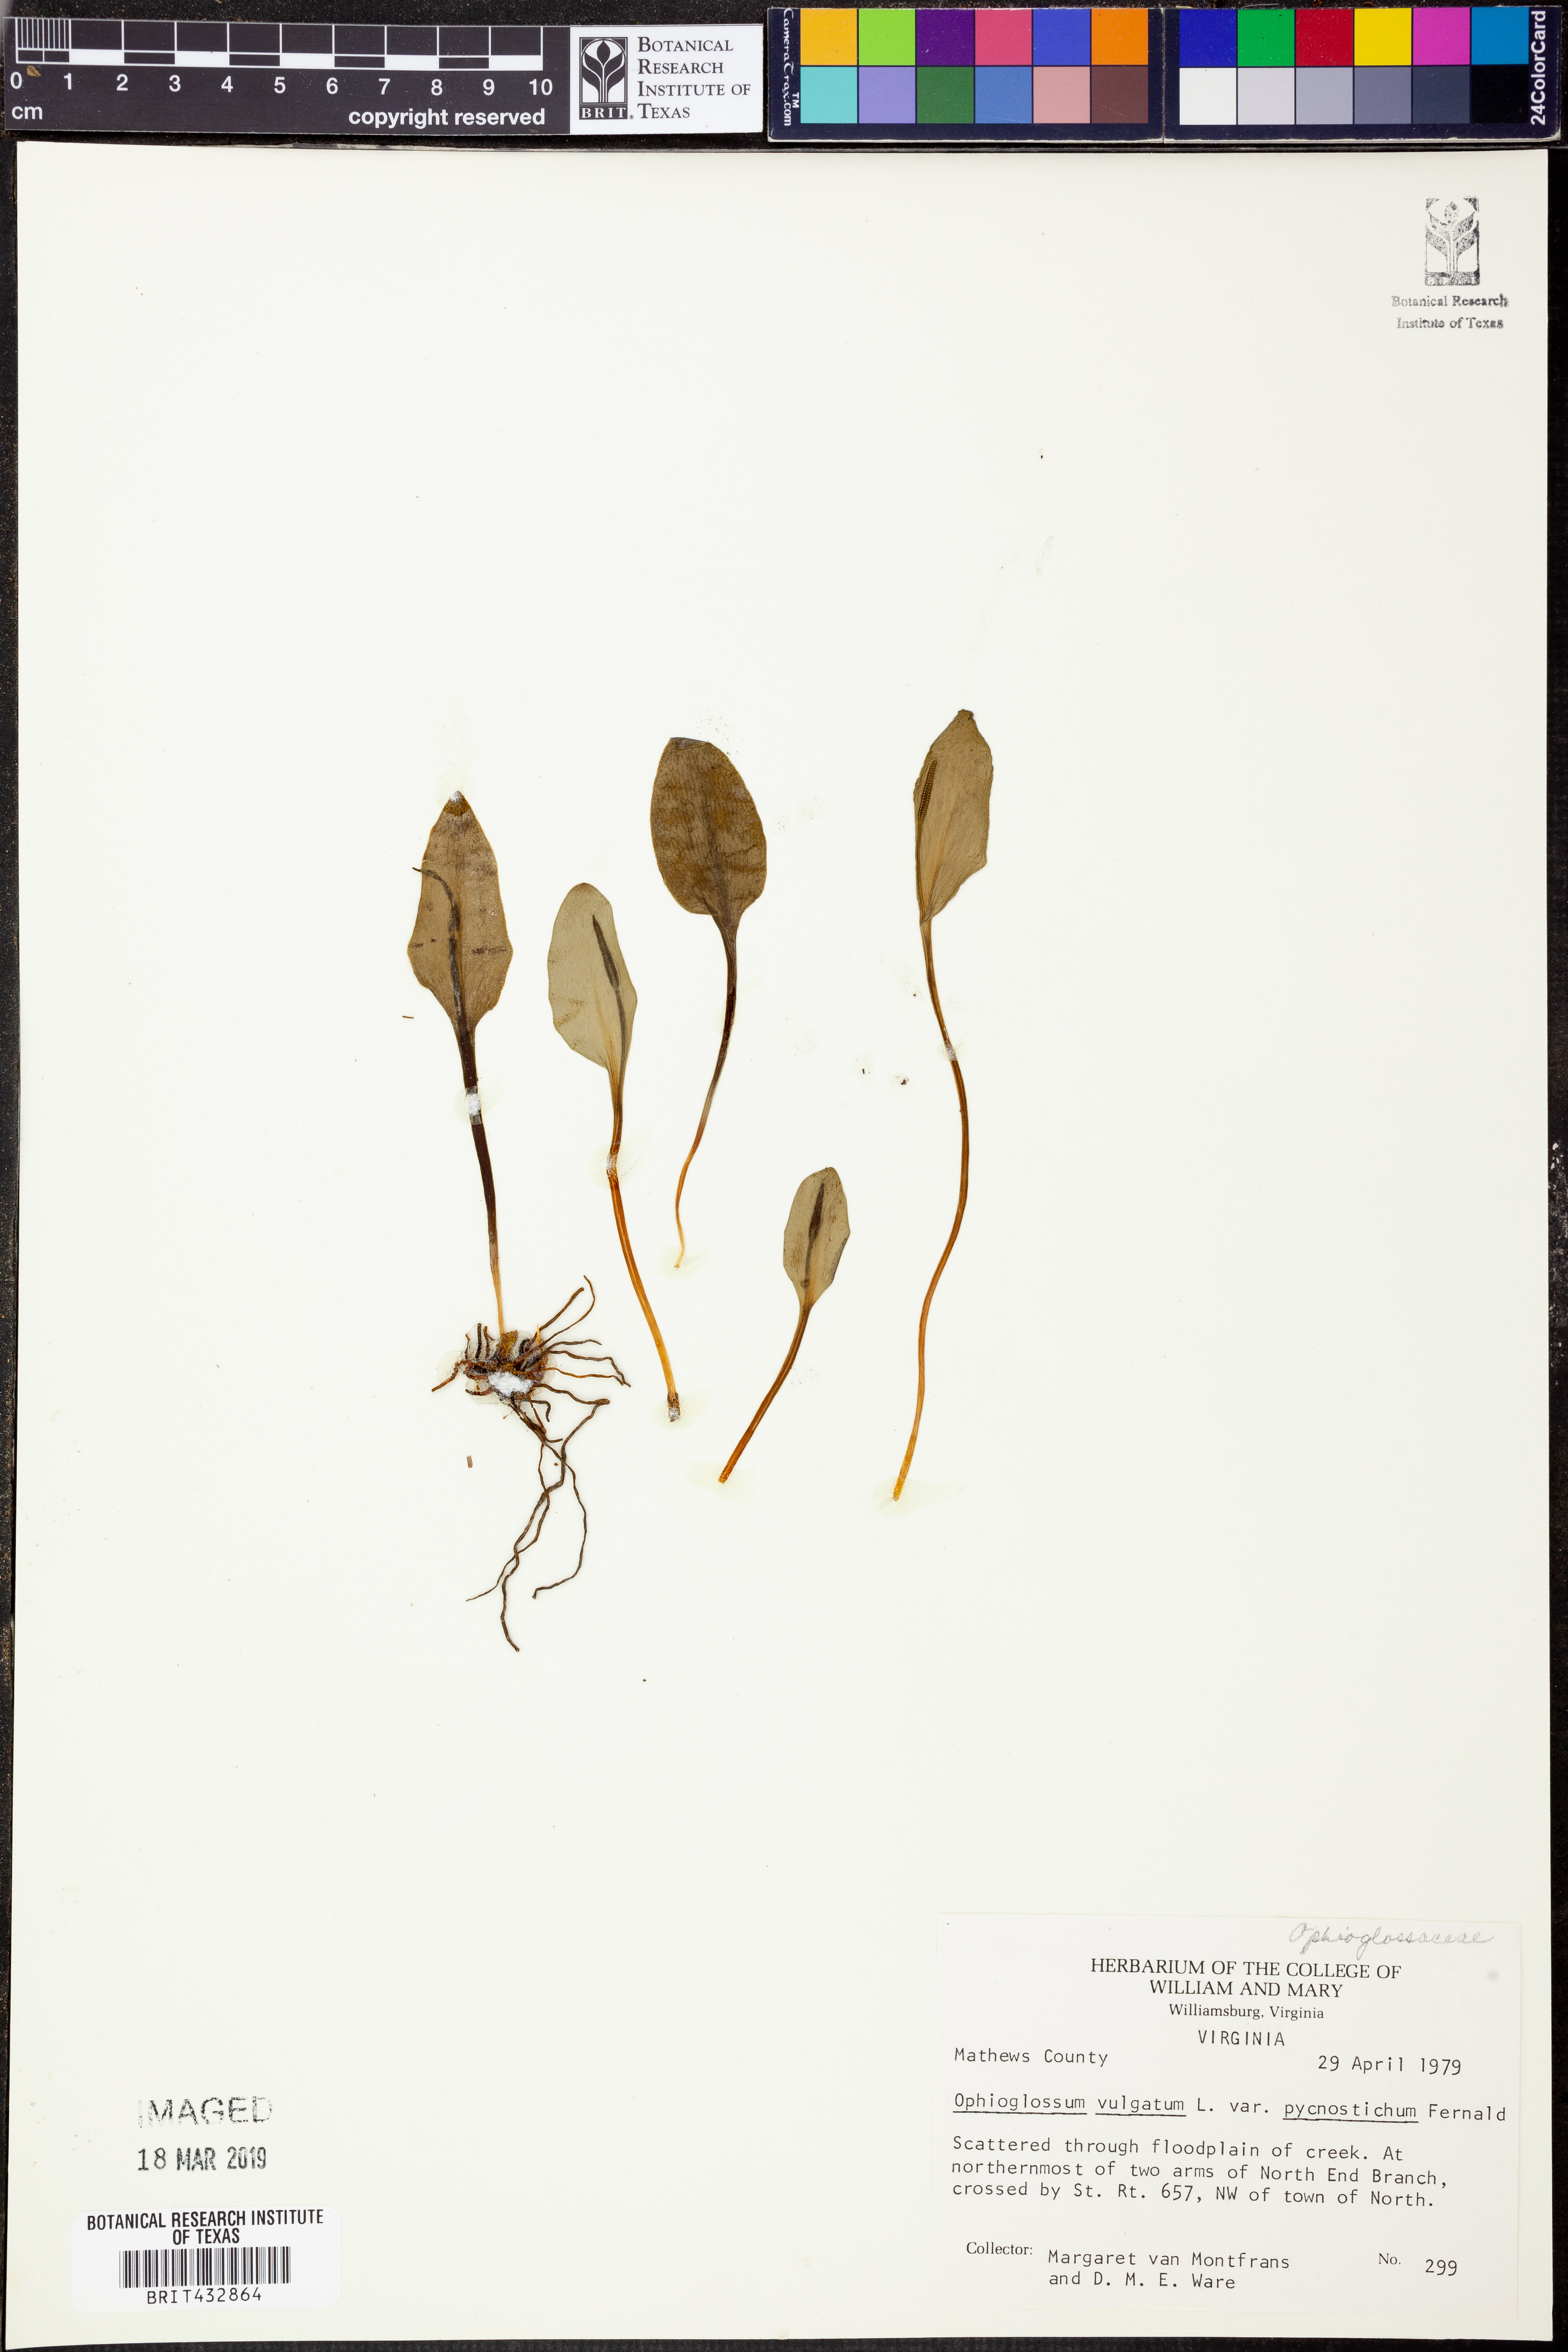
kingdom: Plantae
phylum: Tracheophyta
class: Polypodiopsida
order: Ophioglossales
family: Ophioglossaceae
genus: Ophioglossum
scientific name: Ophioglossum vulgatum
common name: Adder's-tongue
